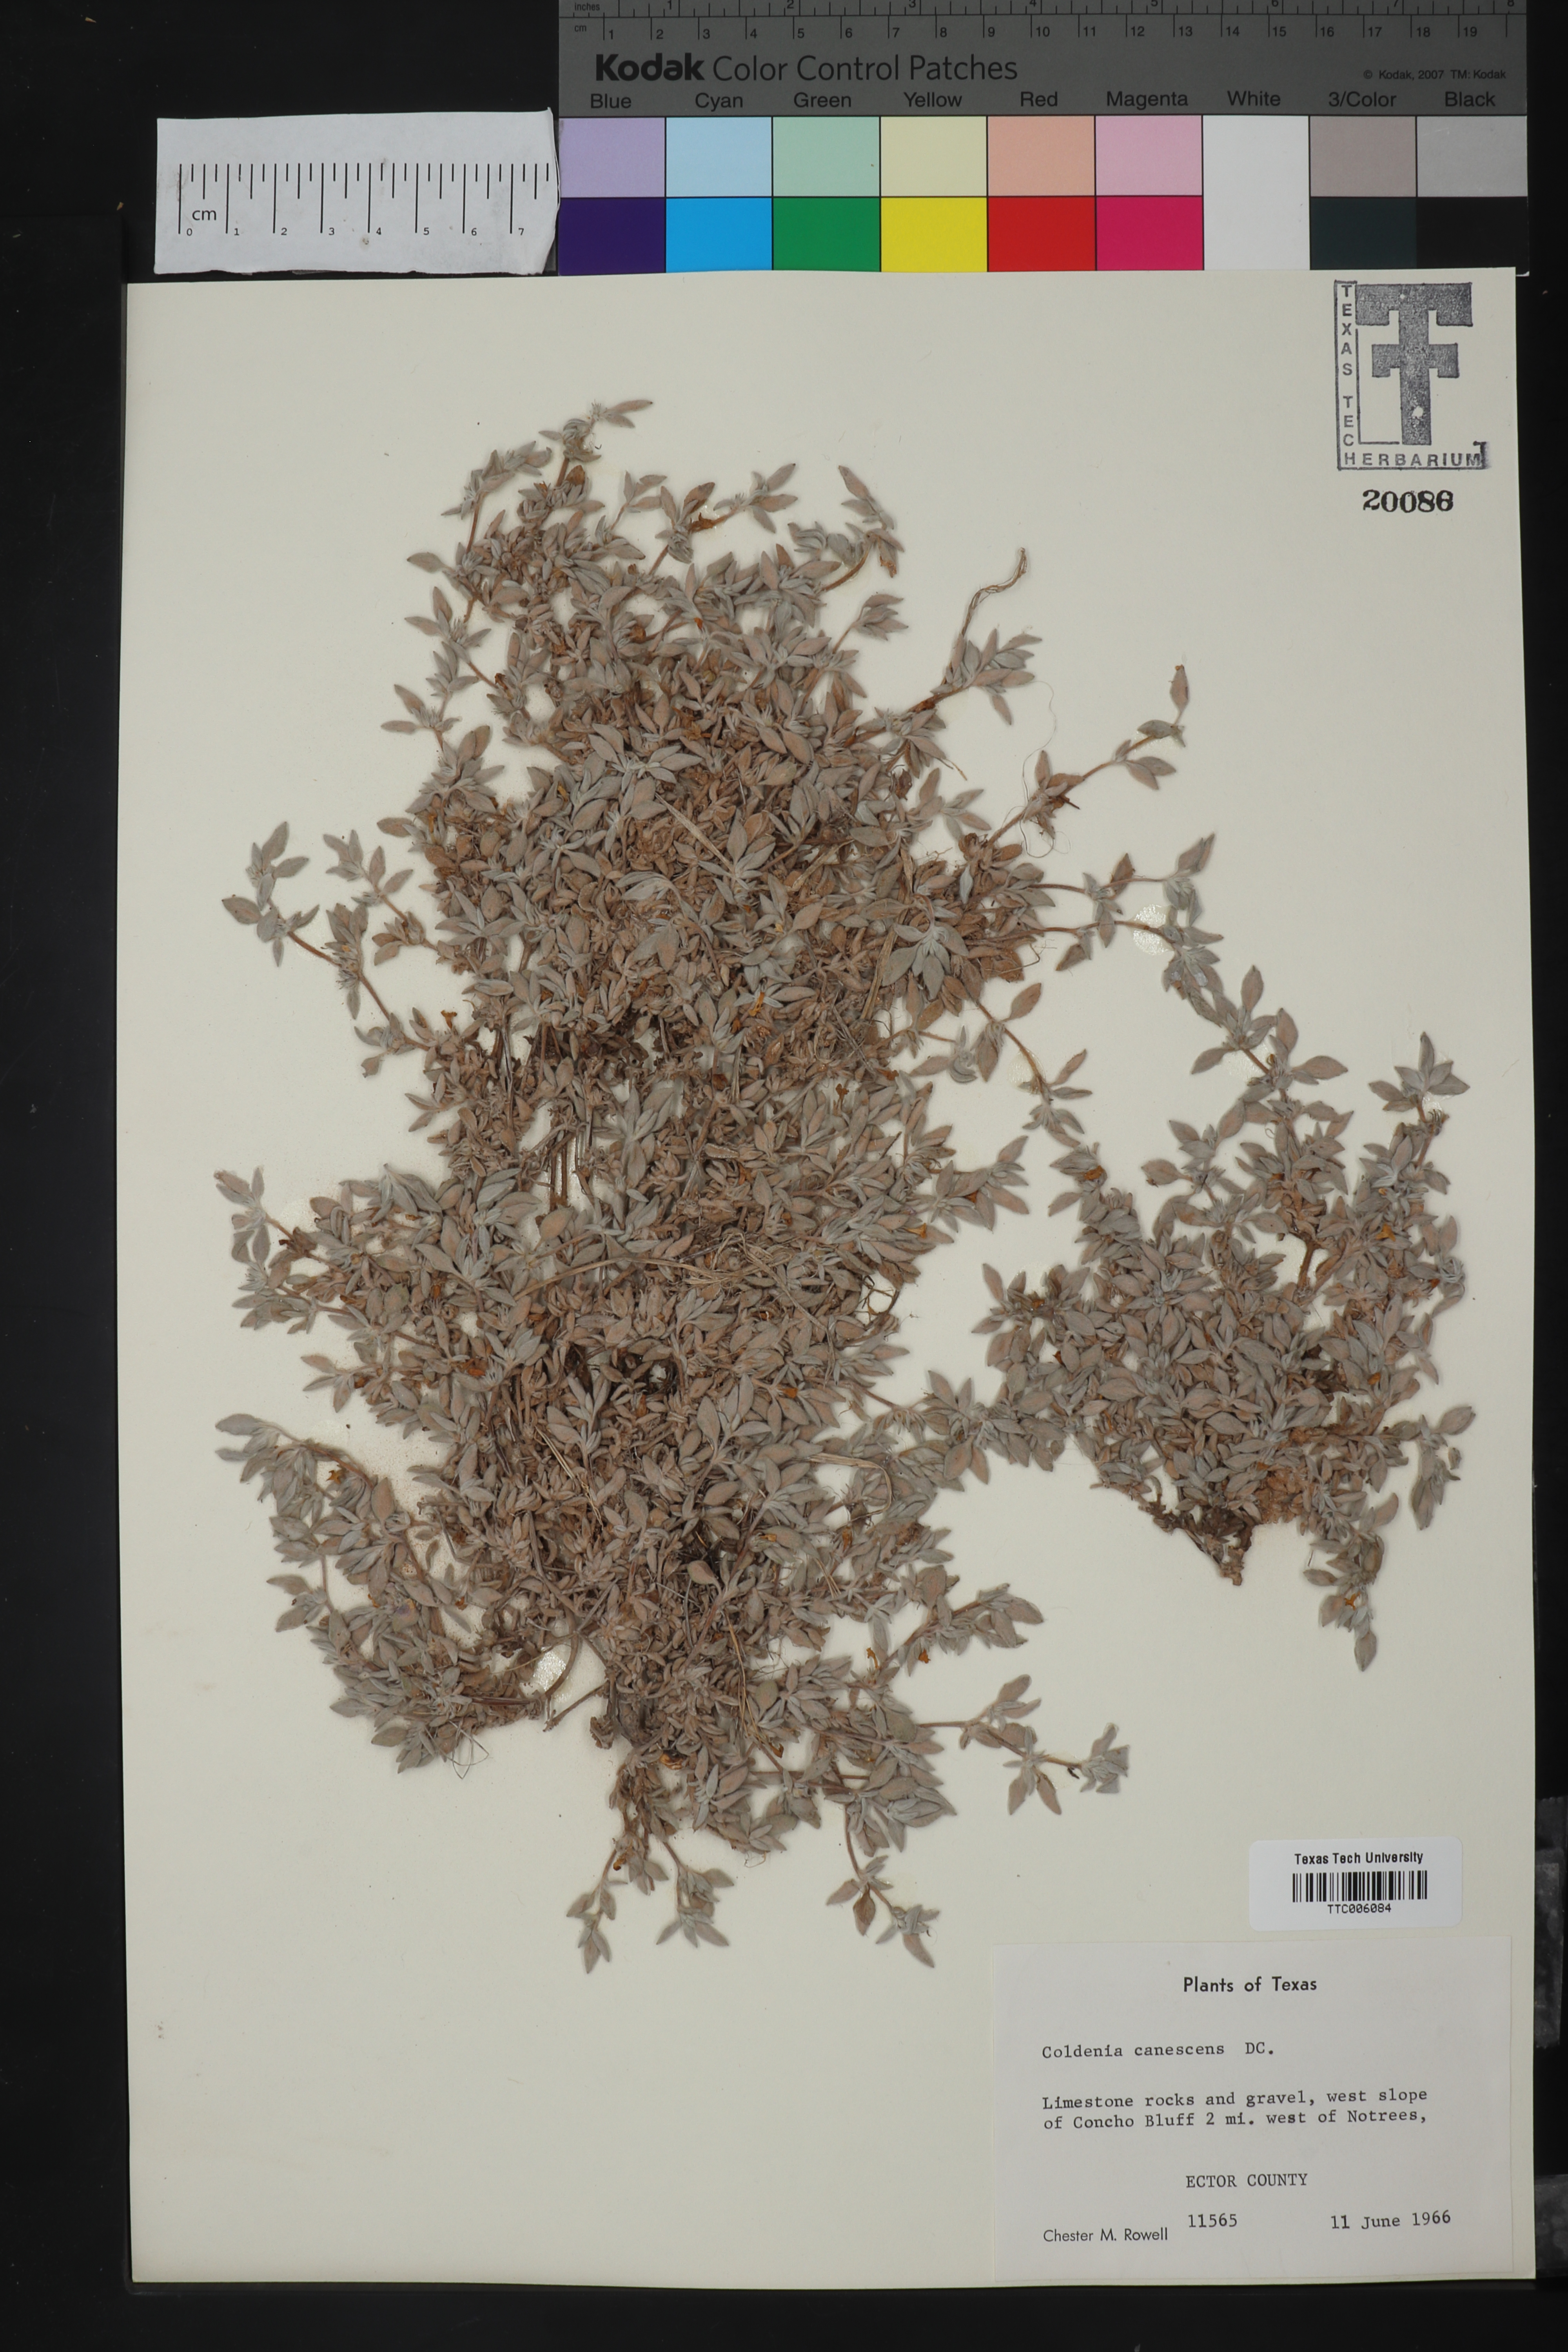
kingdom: Plantae
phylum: Tracheophyta
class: Magnoliopsida
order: Boraginales
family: Ehretiaceae
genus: Tiquilia
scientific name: Tiquilia canescens
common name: Hairy tiquilia
